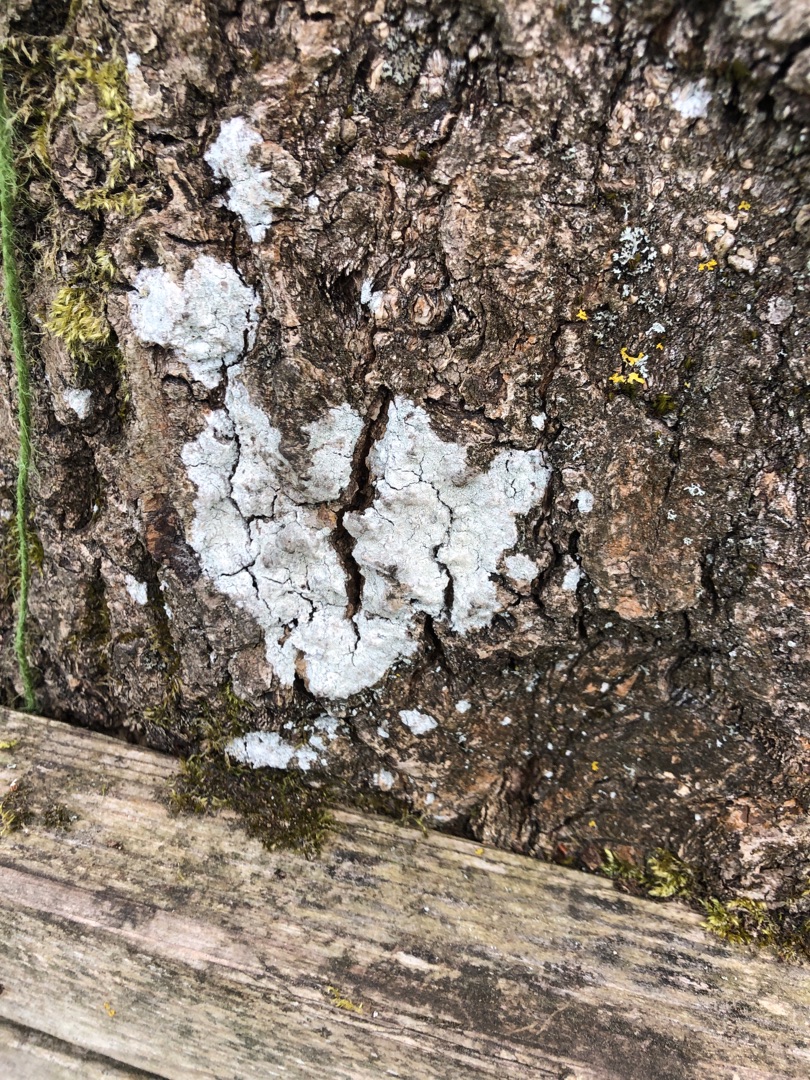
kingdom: Fungi
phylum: Ascomycota
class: Lecanoromycetes
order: Ostropales
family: Phlyctidaceae
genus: Phlyctis
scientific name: Phlyctis argena
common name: Almindelig sølvlav
